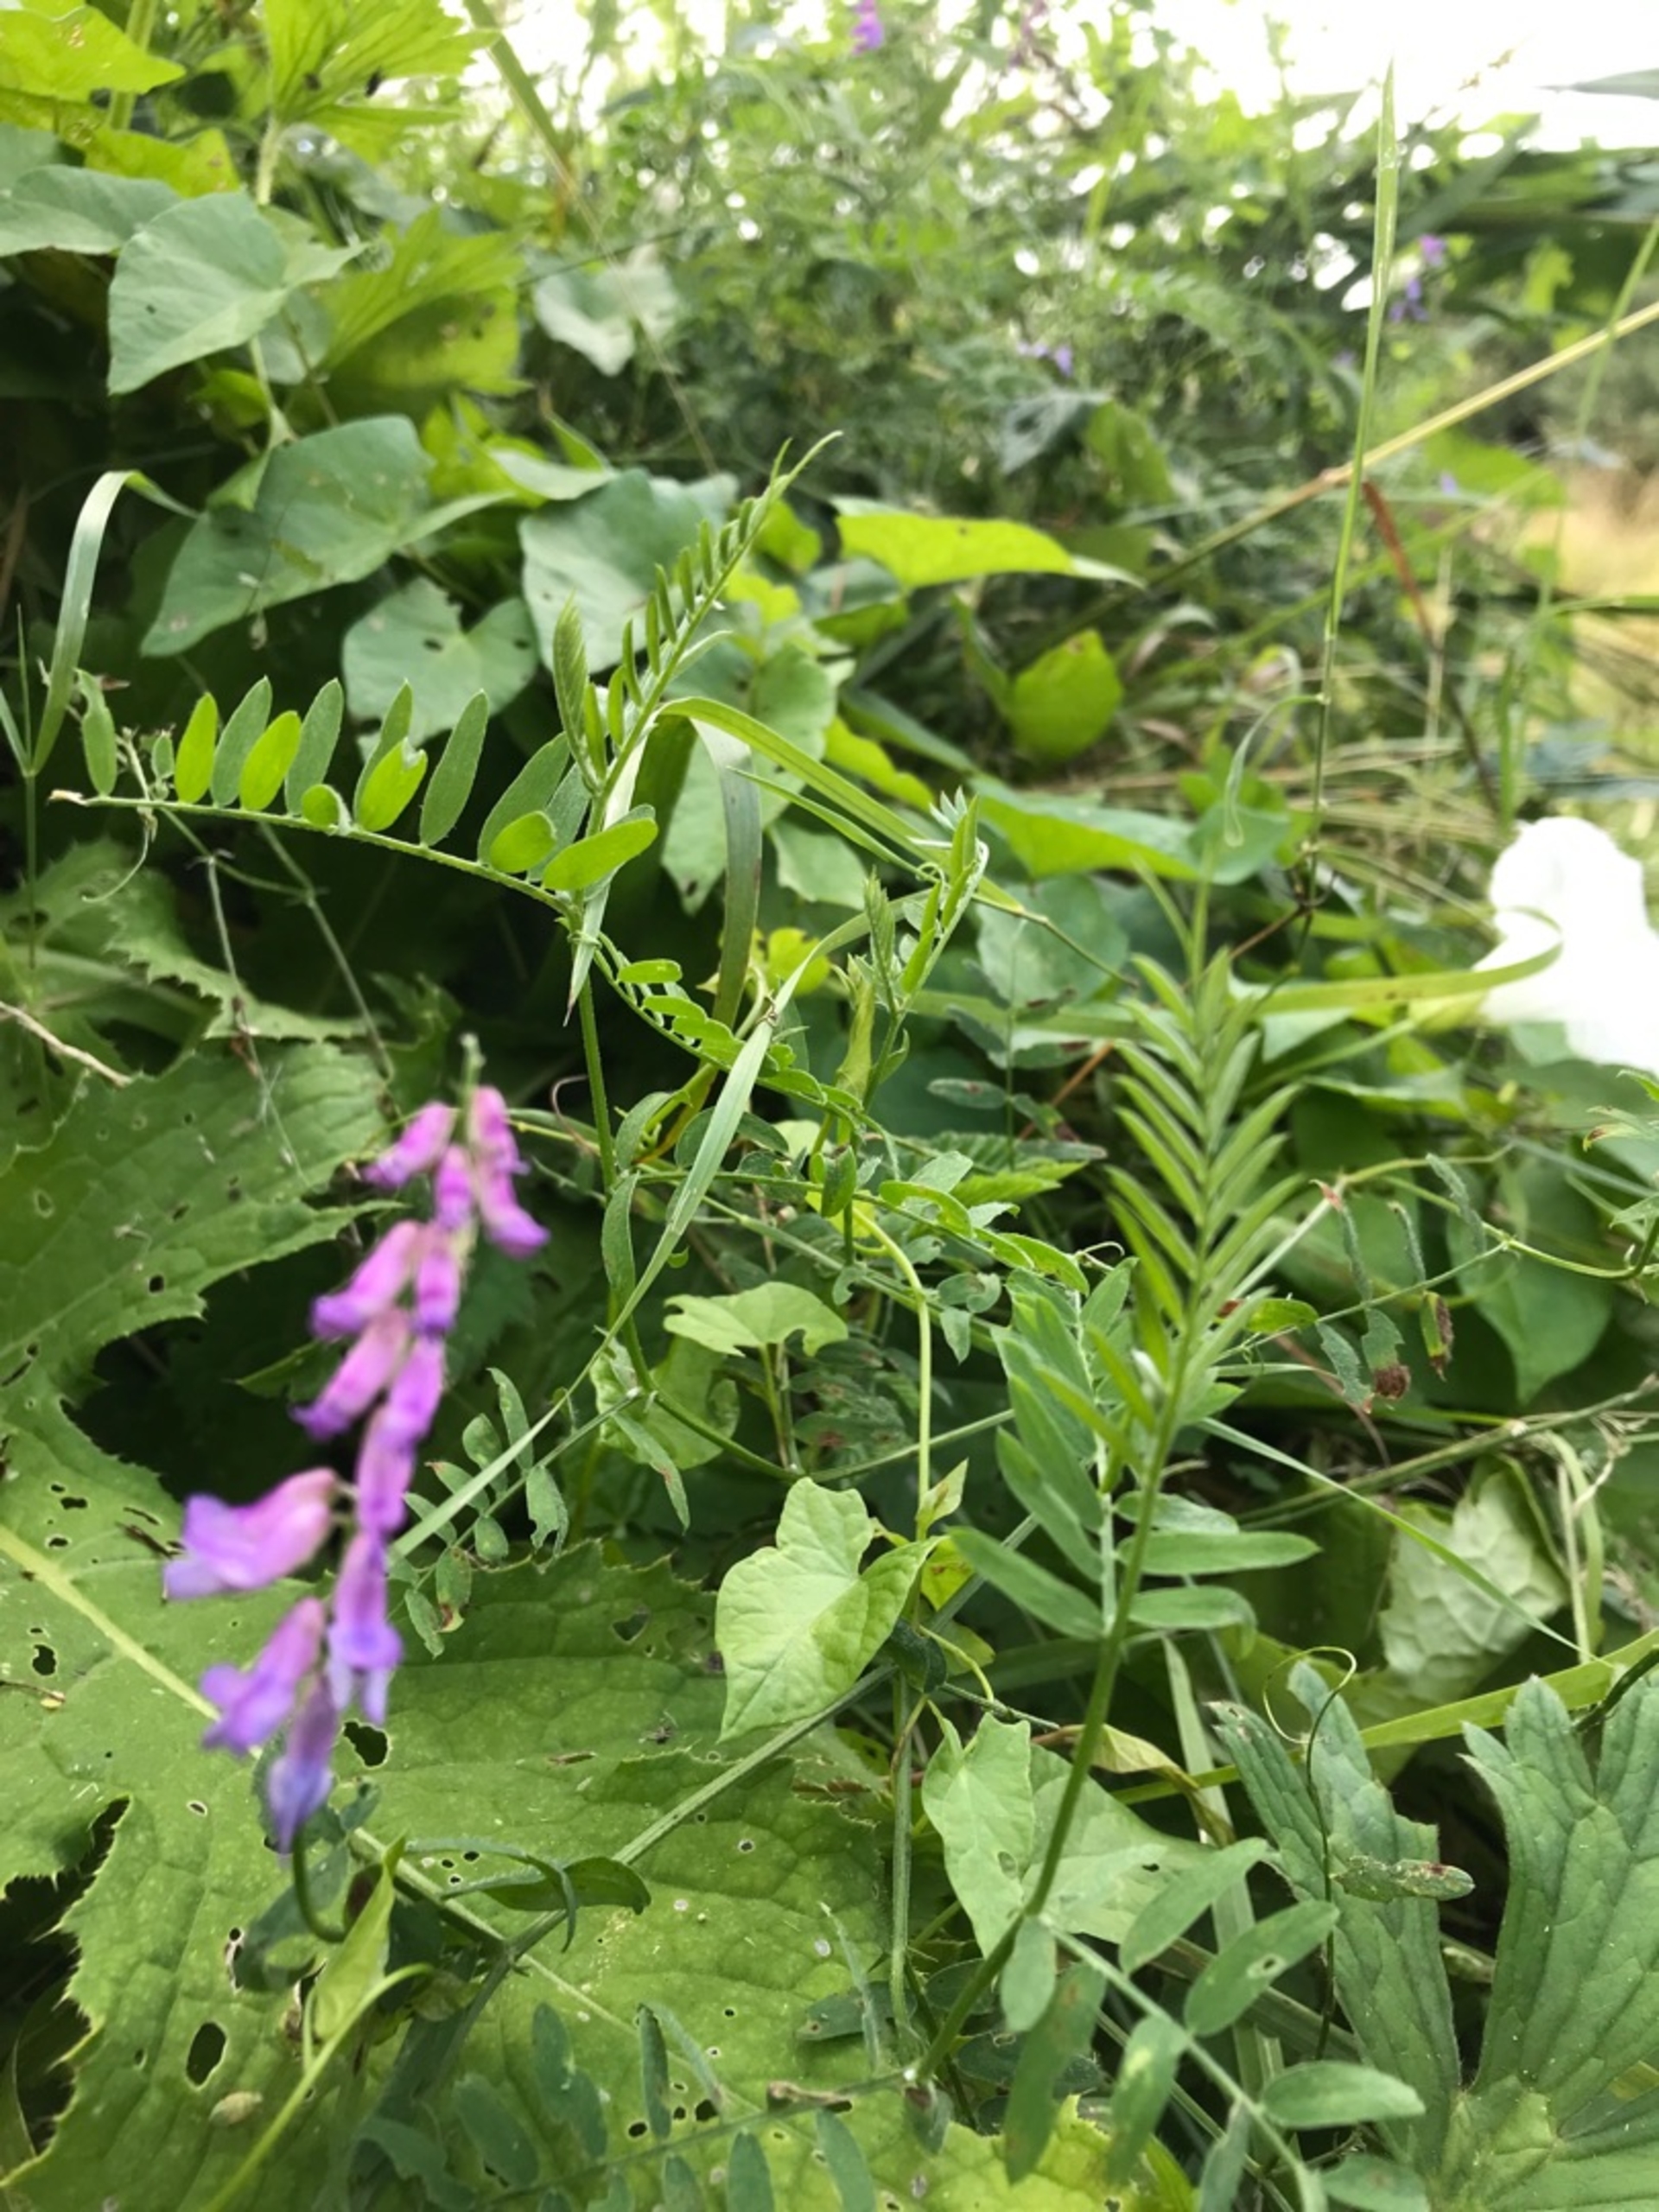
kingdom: Plantae
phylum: Tracheophyta
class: Magnoliopsida
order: Fabales
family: Fabaceae
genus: Vicia
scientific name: Vicia cracca
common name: Muse-vikke
